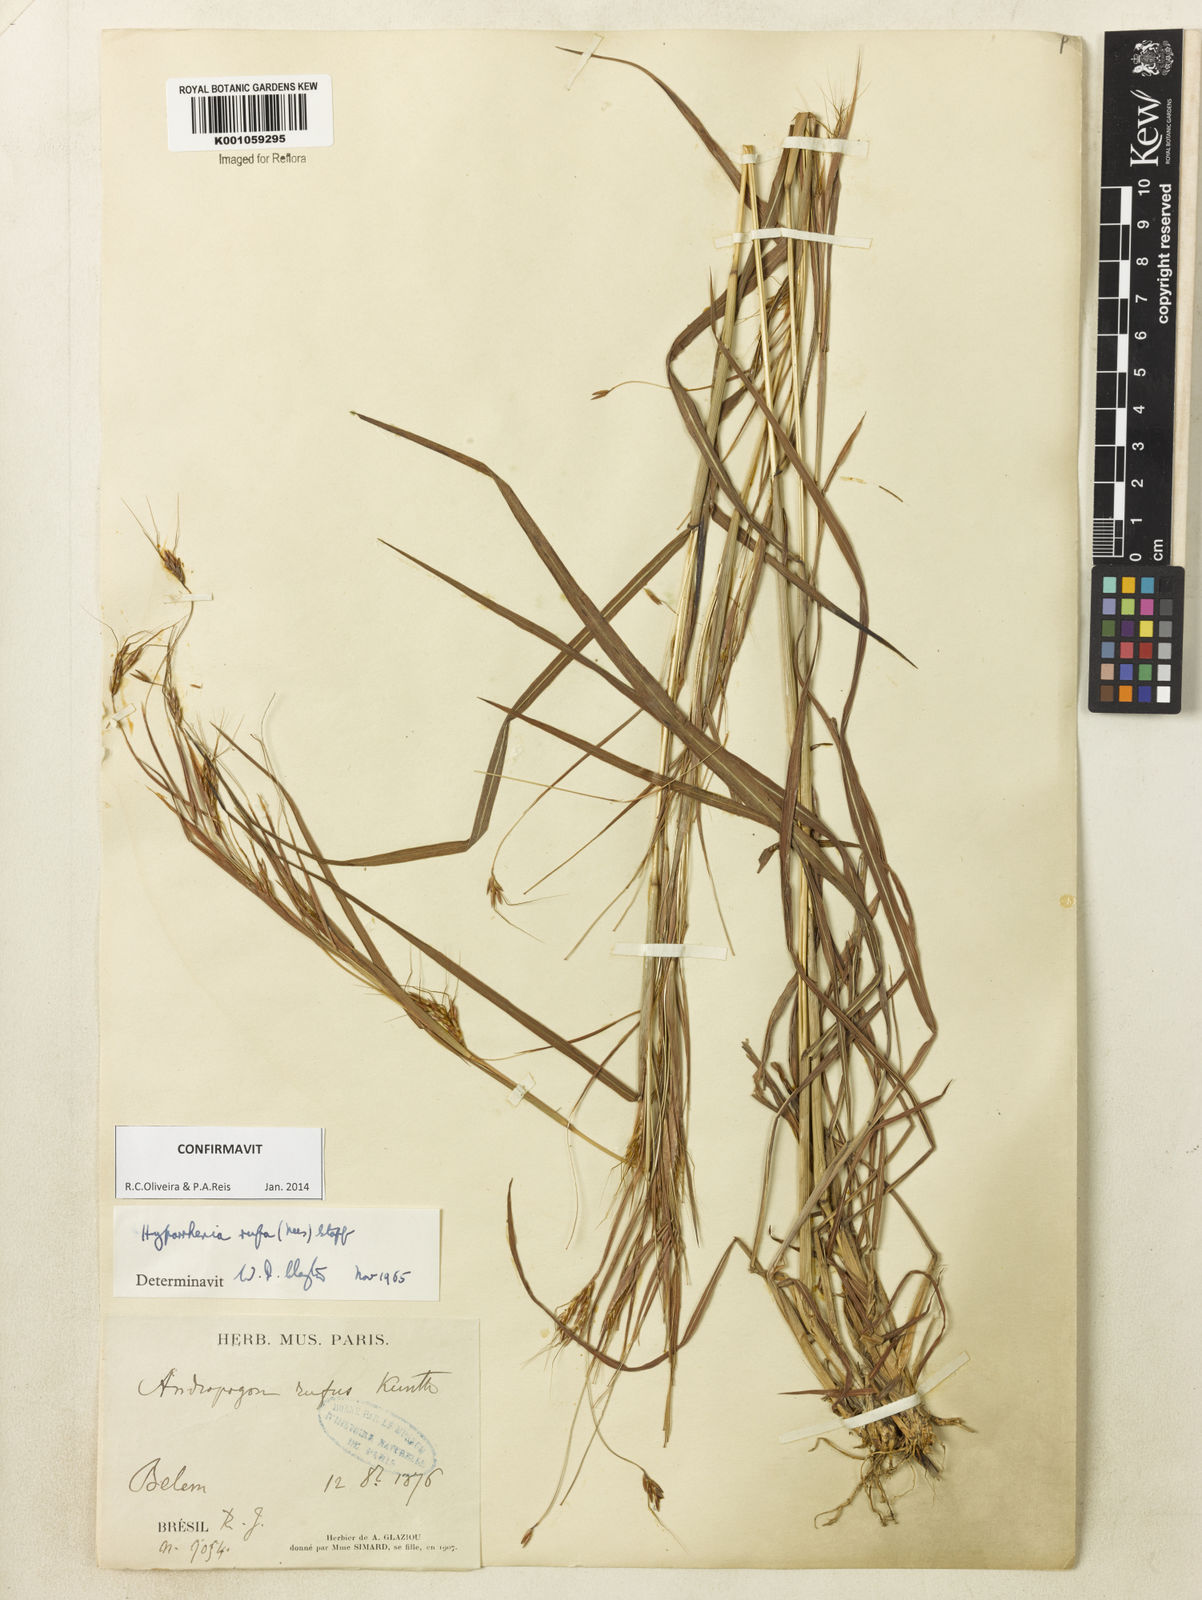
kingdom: Plantae
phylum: Tracheophyta
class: Liliopsida
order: Poales
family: Poaceae
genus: Hyparrhenia
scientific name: Hyparrhenia rufa
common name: Jaraguagrass
